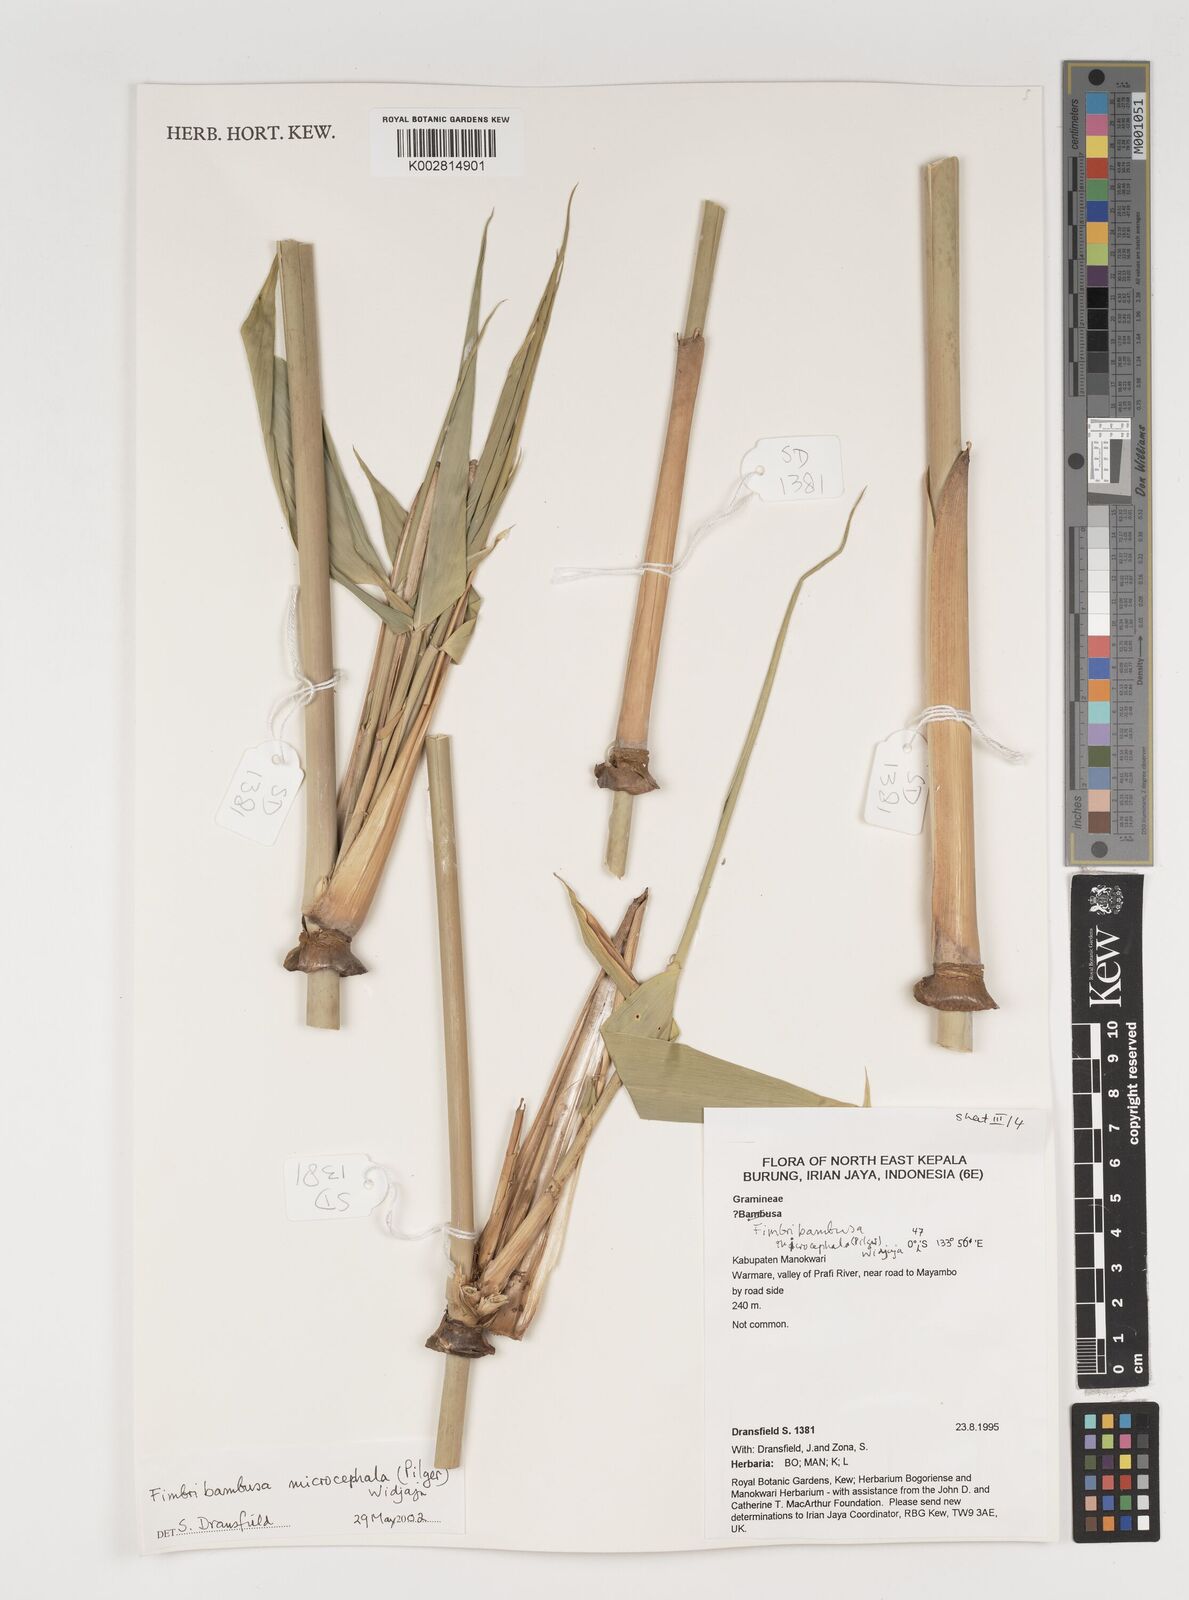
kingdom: Plantae
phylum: Tracheophyta
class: Liliopsida
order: Poales
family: Poaceae
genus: Fimbribambusa
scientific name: Fimbribambusa microcephala
